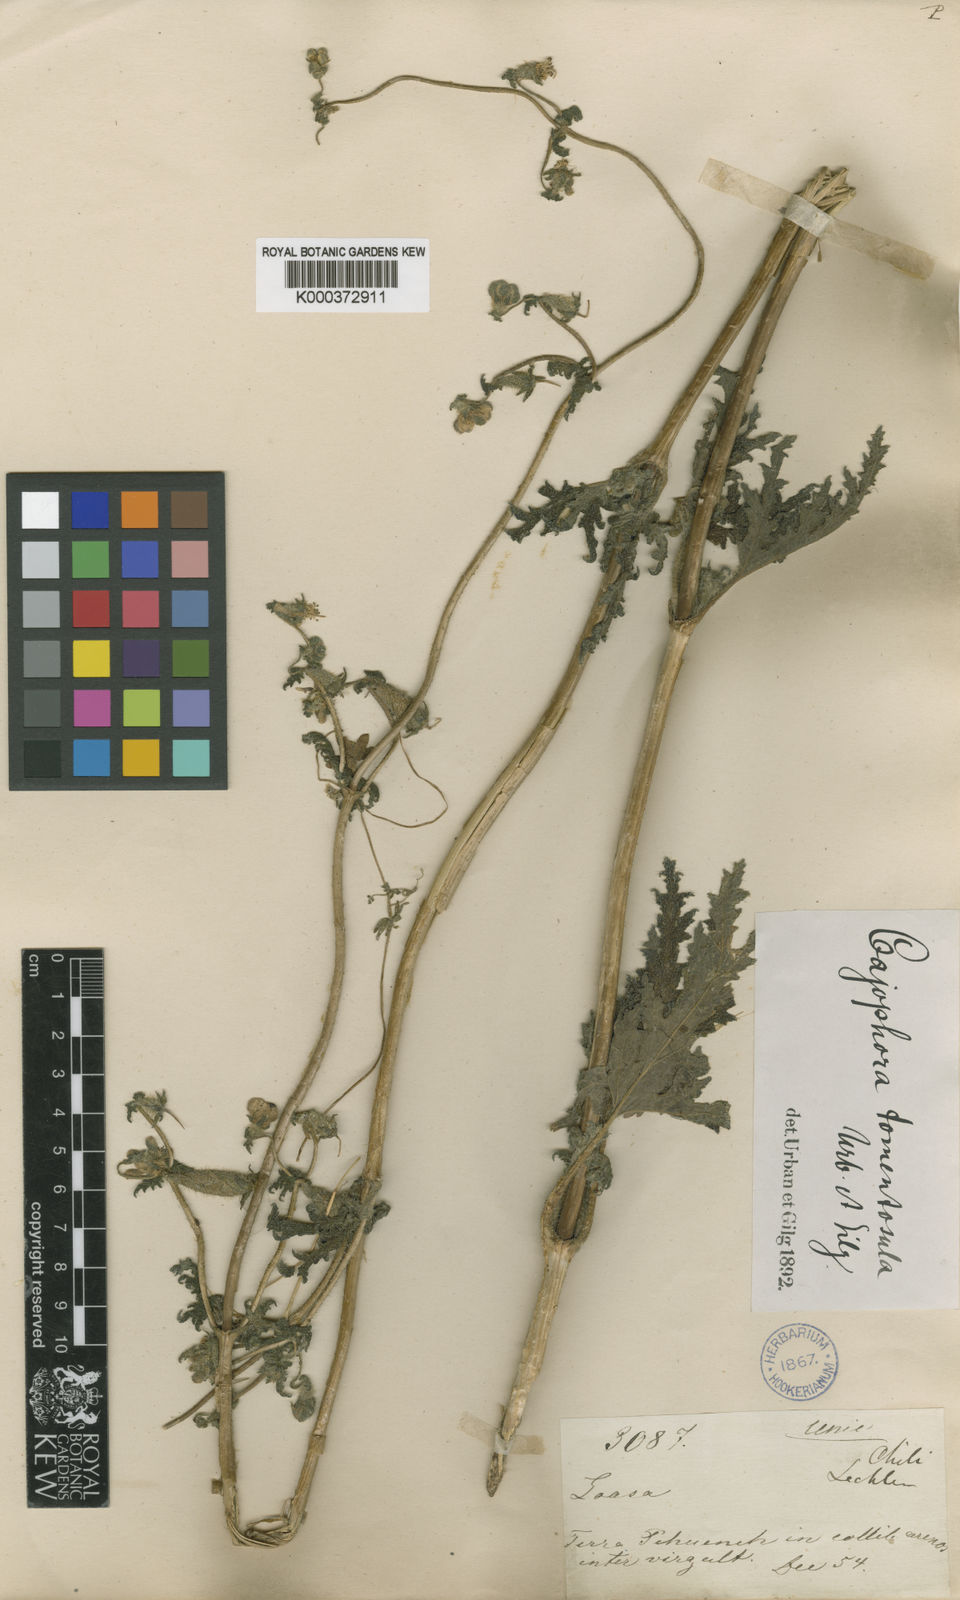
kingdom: Plantae
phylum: Tracheophyta
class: Magnoliopsida
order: Cornales
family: Loasaceae
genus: Blumenbachia
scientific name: Blumenbachia sylvestris
